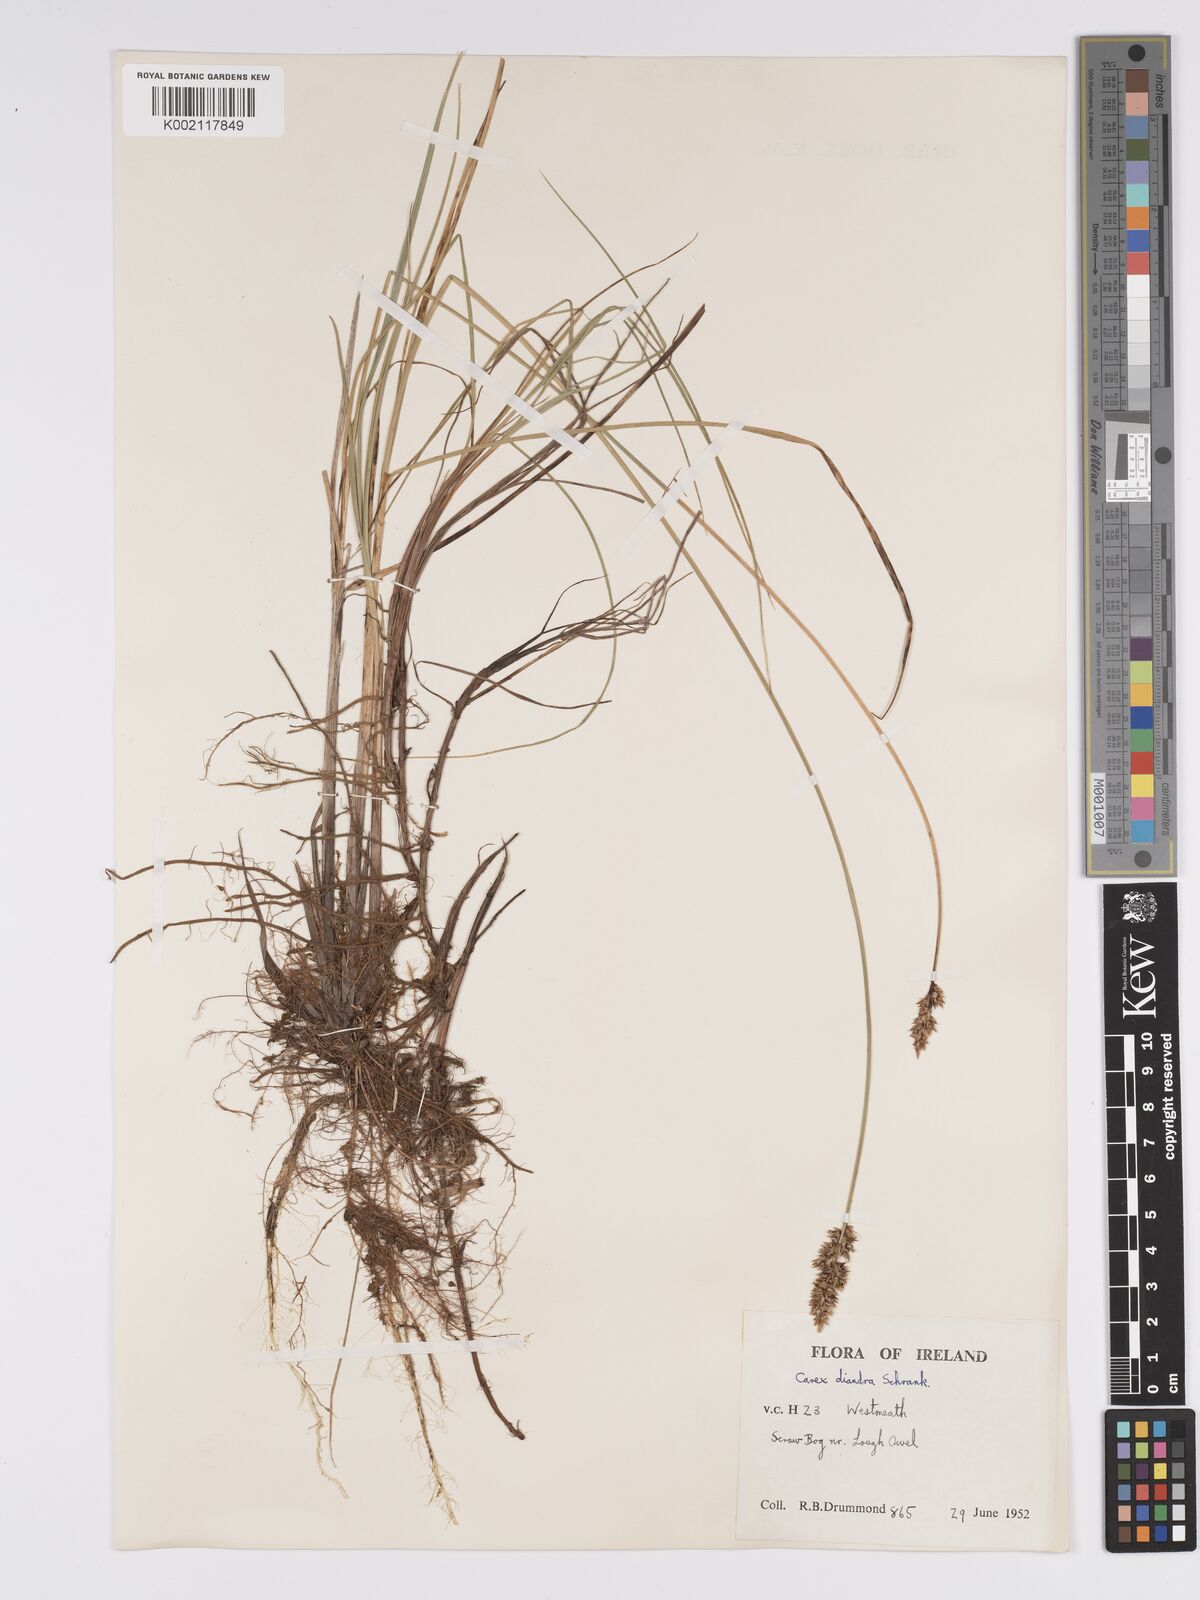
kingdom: Plantae
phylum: Tracheophyta
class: Liliopsida
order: Poales
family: Cyperaceae
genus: Carex
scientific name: Carex diandra
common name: Lesser tussock-sedge
